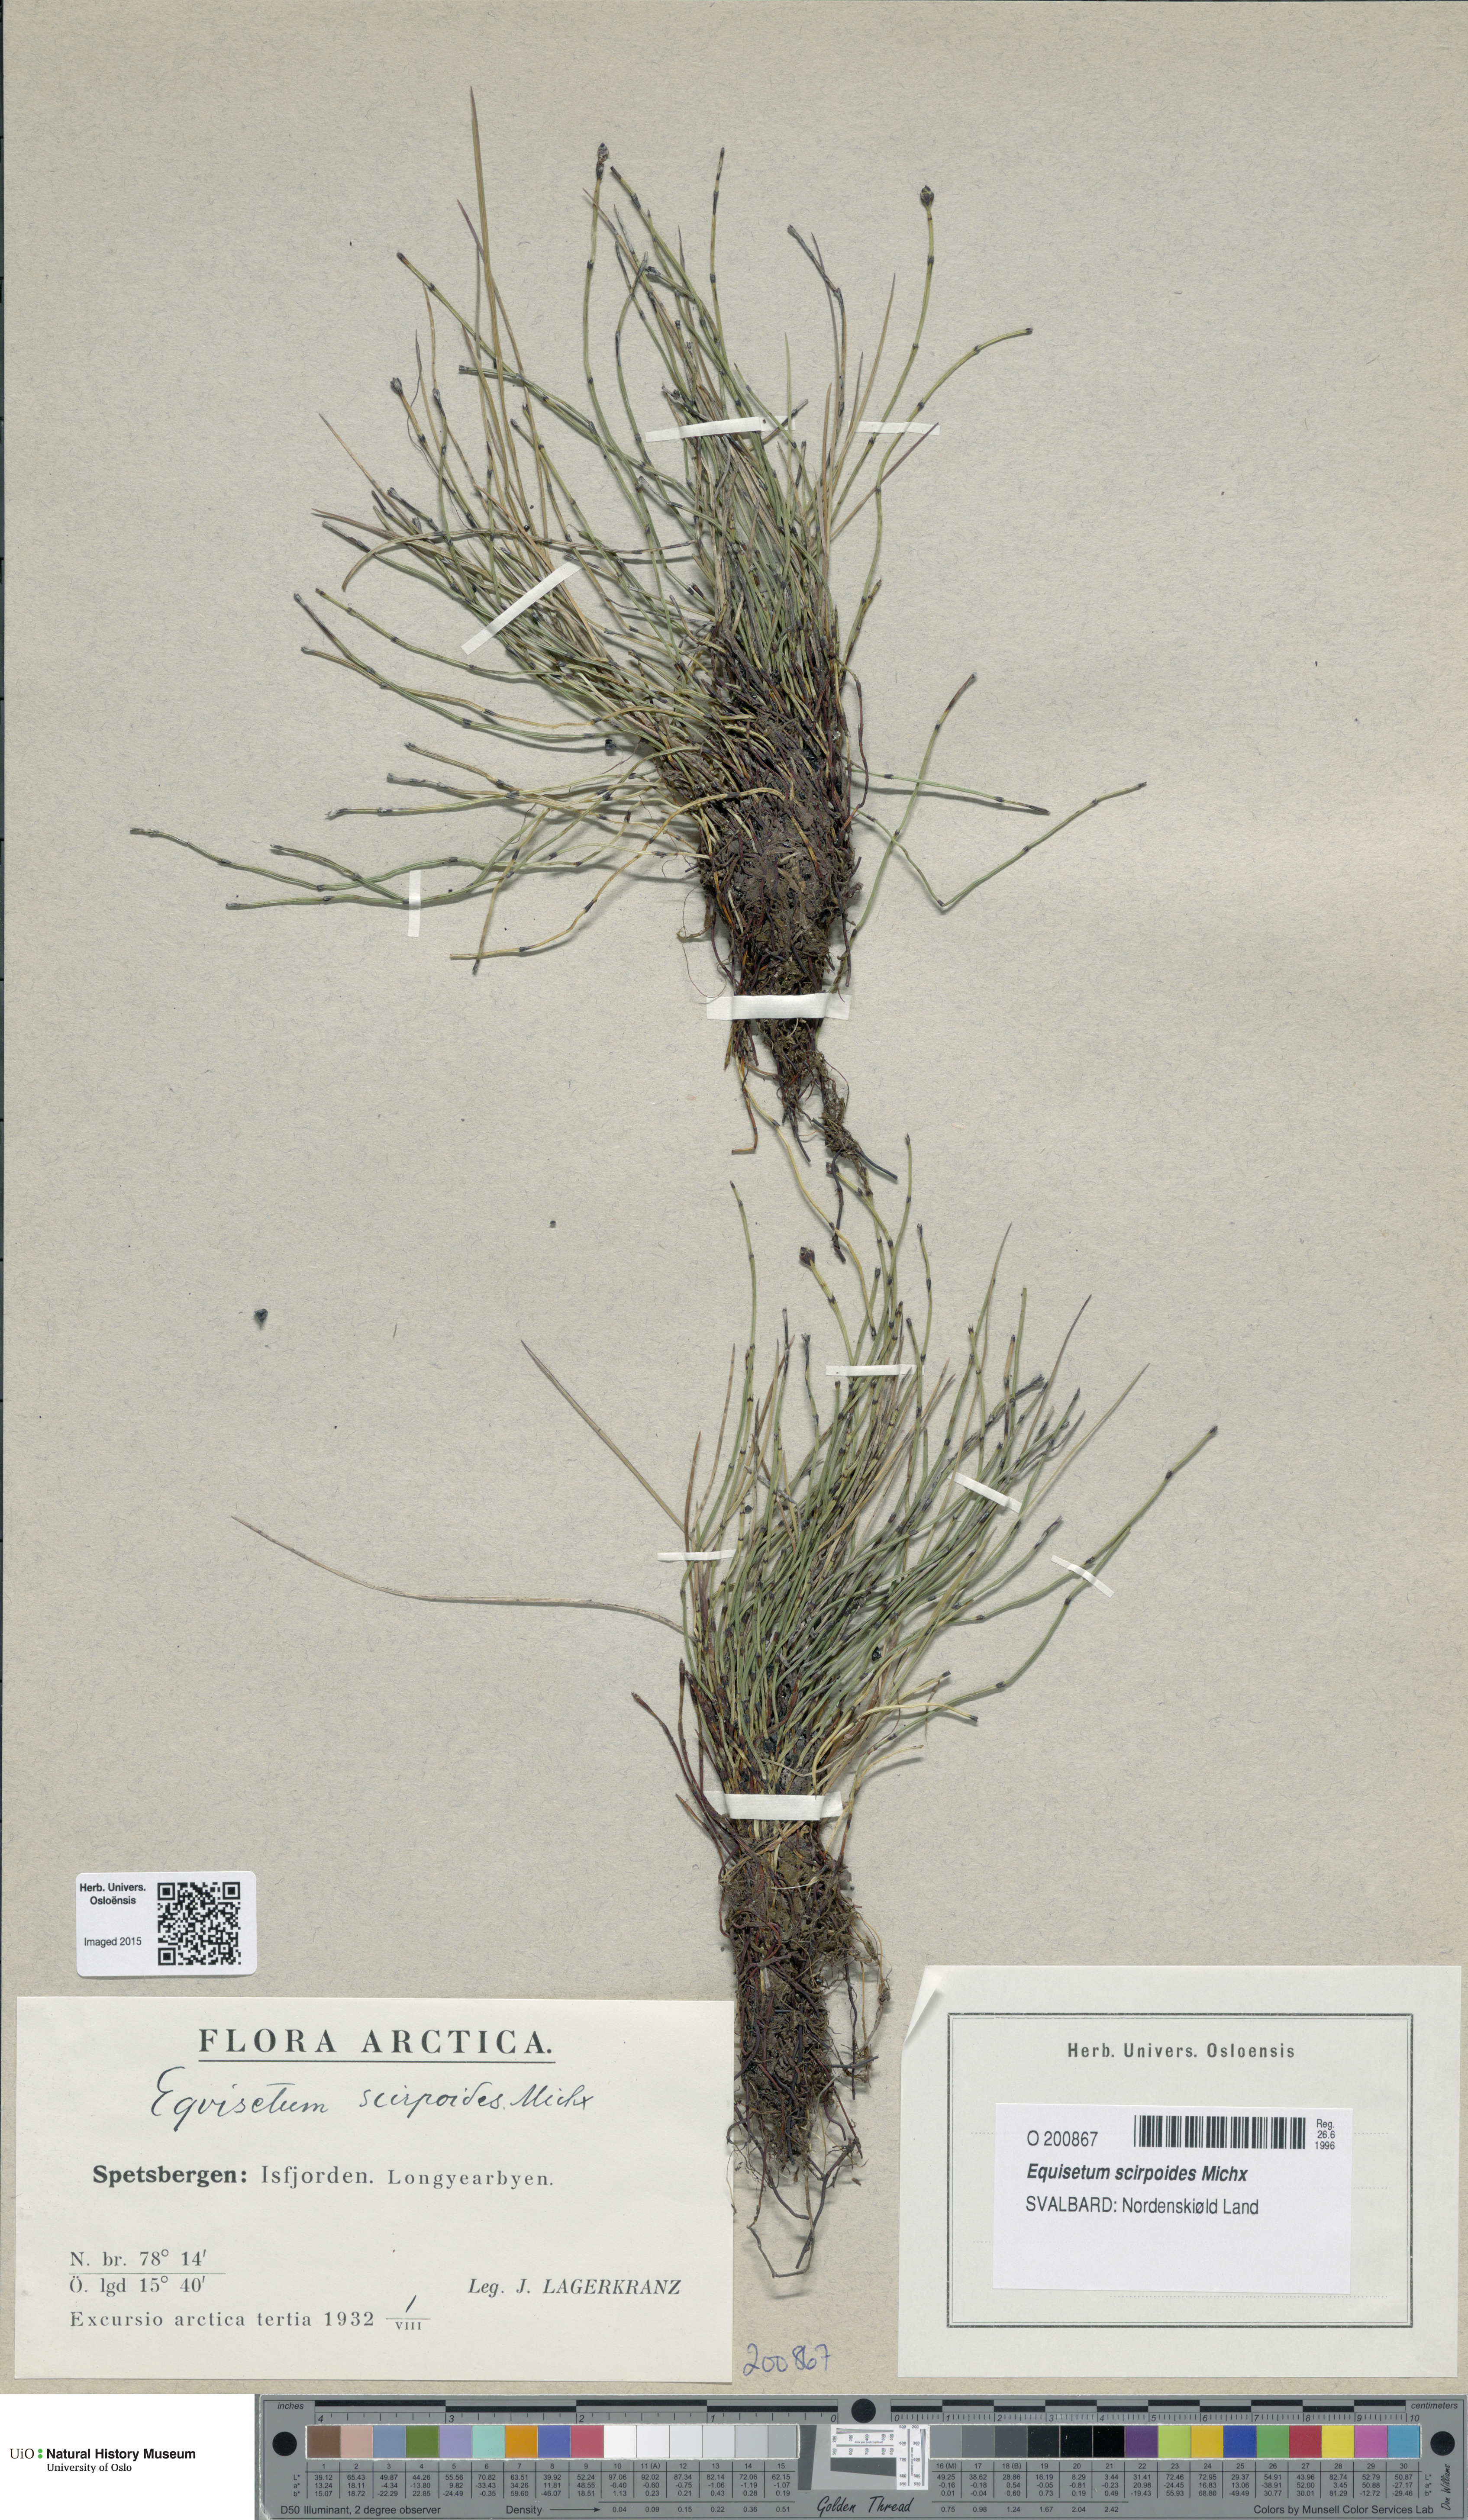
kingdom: Plantae
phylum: Tracheophyta
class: Polypodiopsida
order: Equisetales
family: Equisetaceae
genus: Equisetum
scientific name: Equisetum scirpoides
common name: Delicate horsetail
